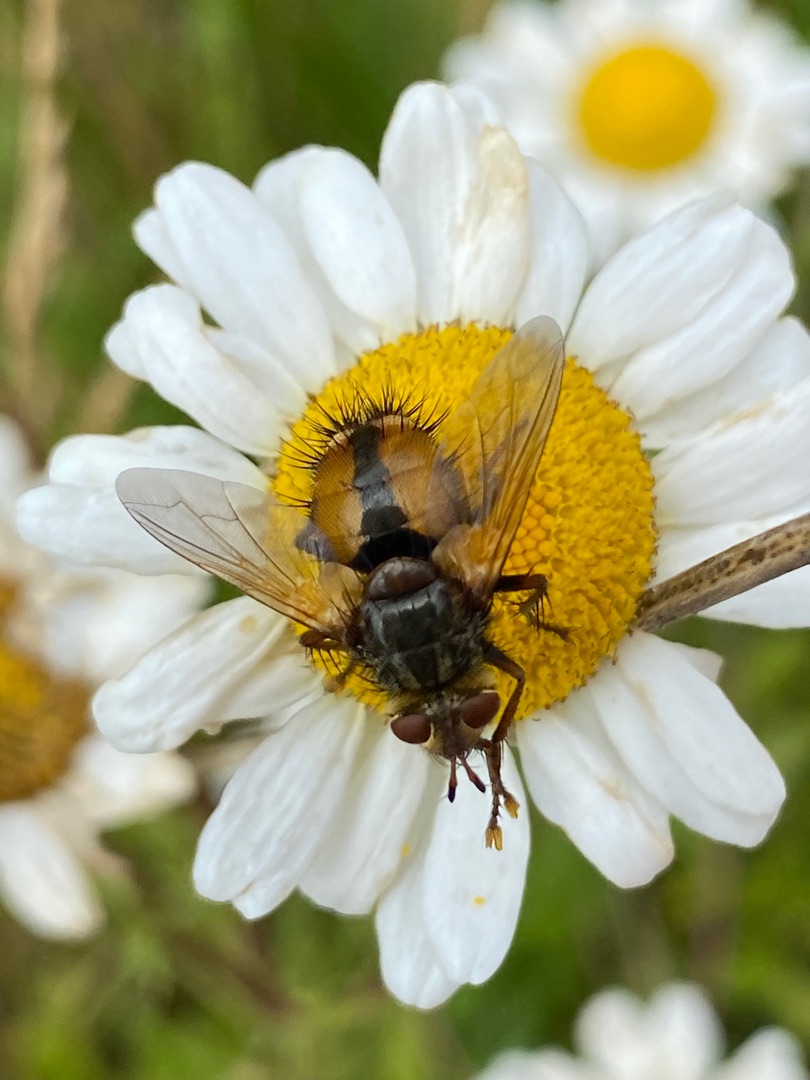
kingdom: Animalia
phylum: Arthropoda
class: Insecta
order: Diptera
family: Tachinidae
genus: Tachina
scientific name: Tachina fera
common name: Mellemfluen oskar
